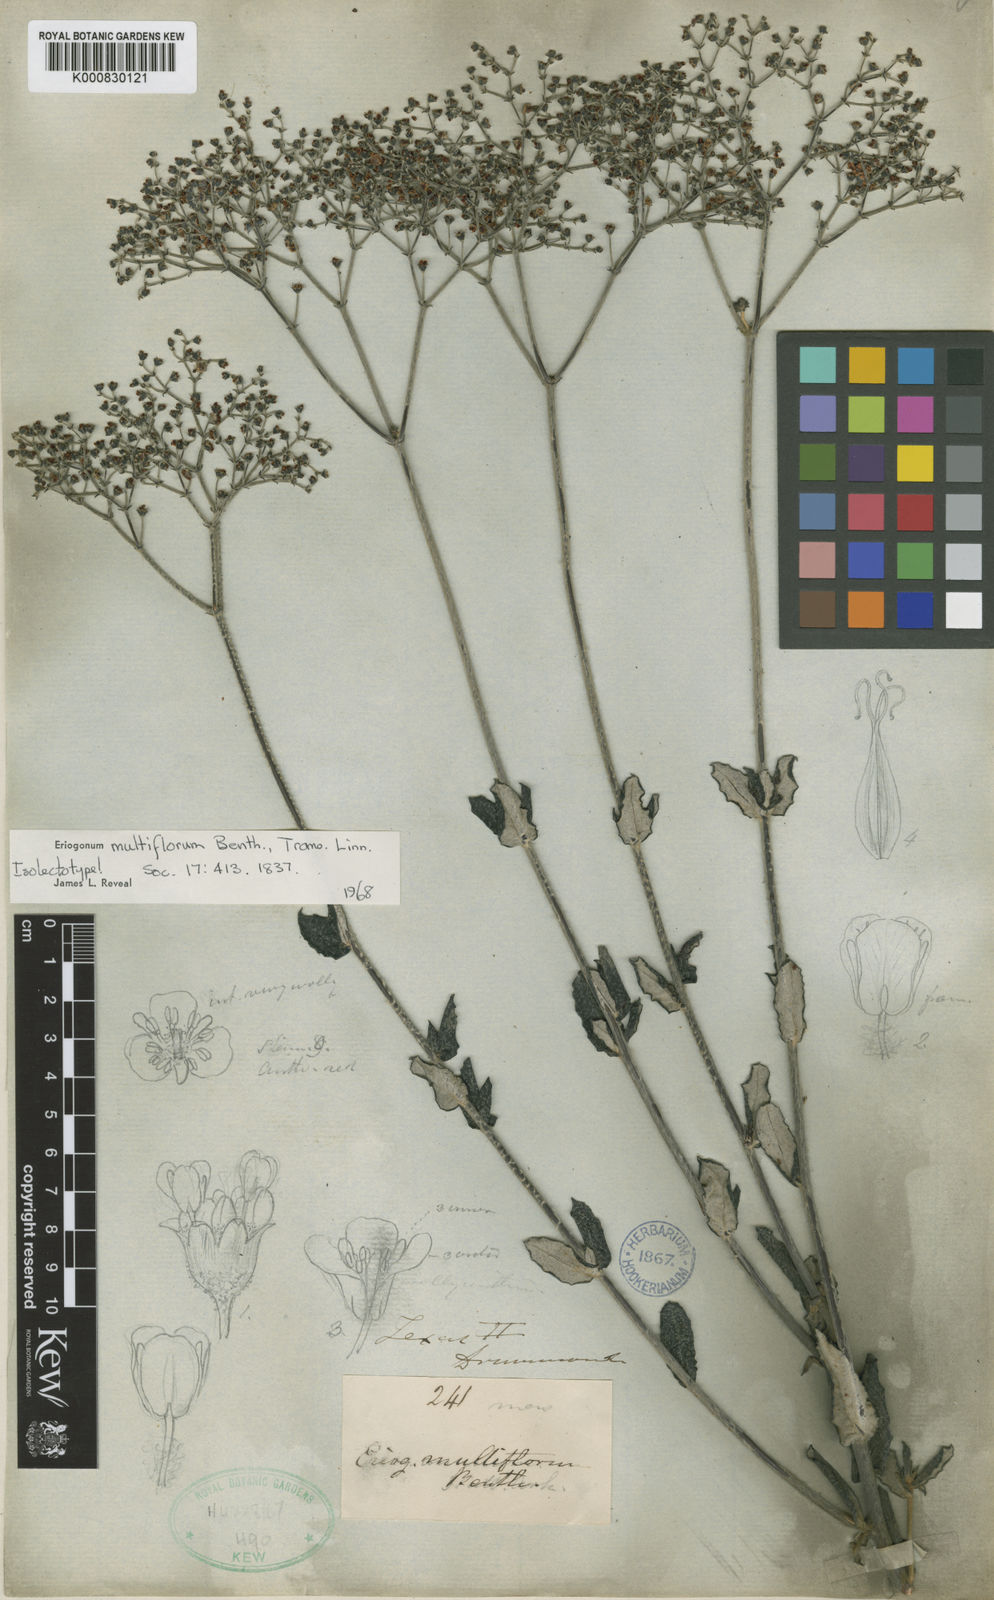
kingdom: Plantae
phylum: Tracheophyta
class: Magnoliopsida
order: Caryophyllales
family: Polygonaceae
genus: Eriogonum
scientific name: Eriogonum multiflorum
